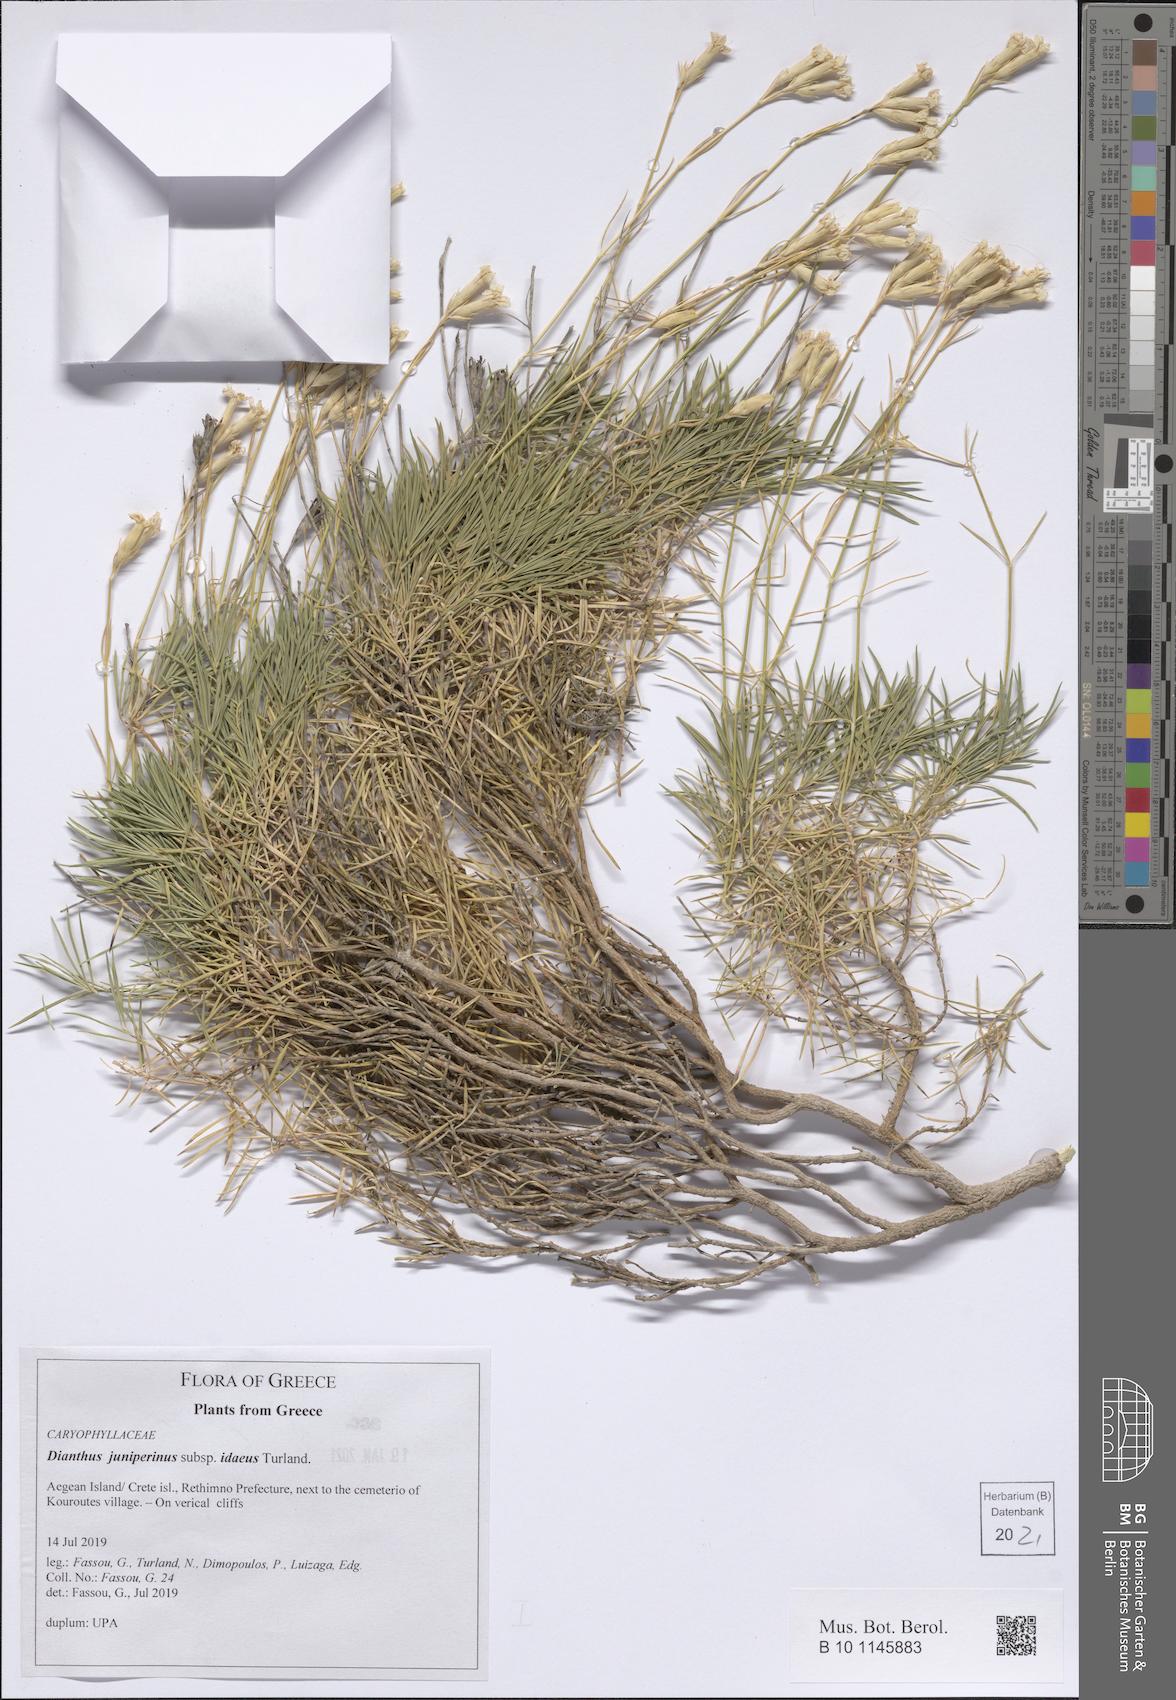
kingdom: Plantae
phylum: Tracheophyta
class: Magnoliopsida
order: Caryophyllales
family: Caryophyllaceae
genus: Dianthus
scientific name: Dianthus juniperinus
